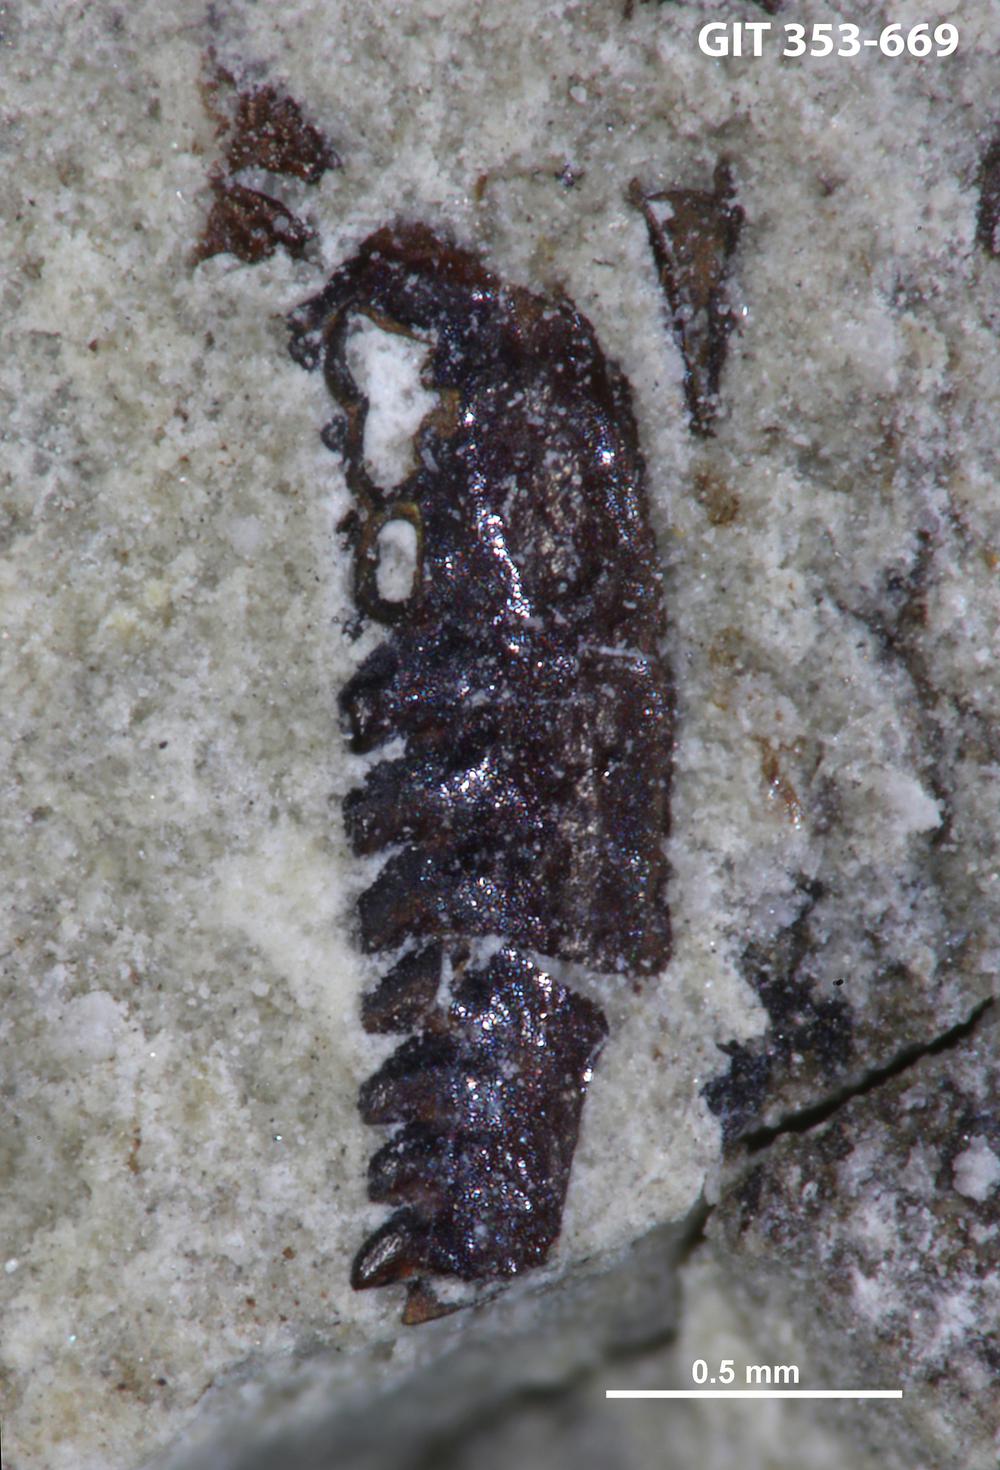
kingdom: Animalia
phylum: Annelida
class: Polychaeta
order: Eunicida
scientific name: Eunicida
